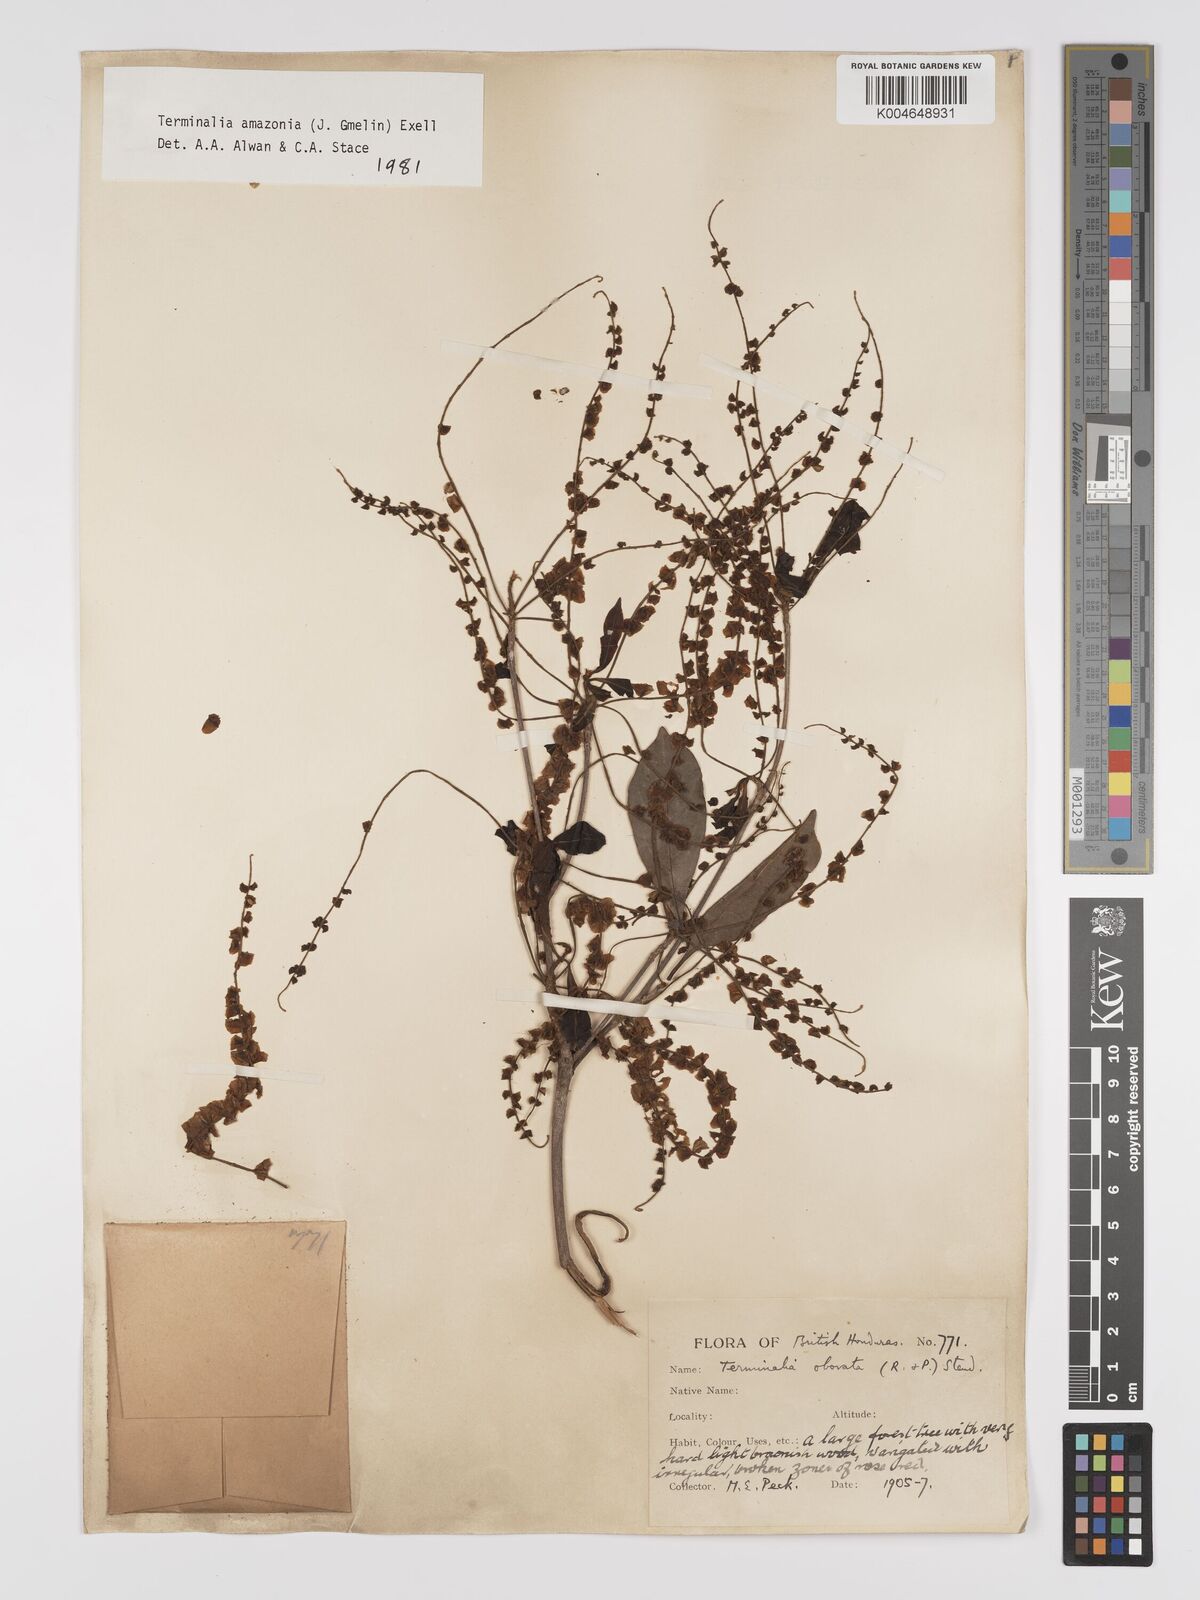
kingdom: Plantae
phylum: Tracheophyta
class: Magnoliopsida
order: Myrtales
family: Combretaceae
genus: Terminalia
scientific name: Terminalia amazonica
